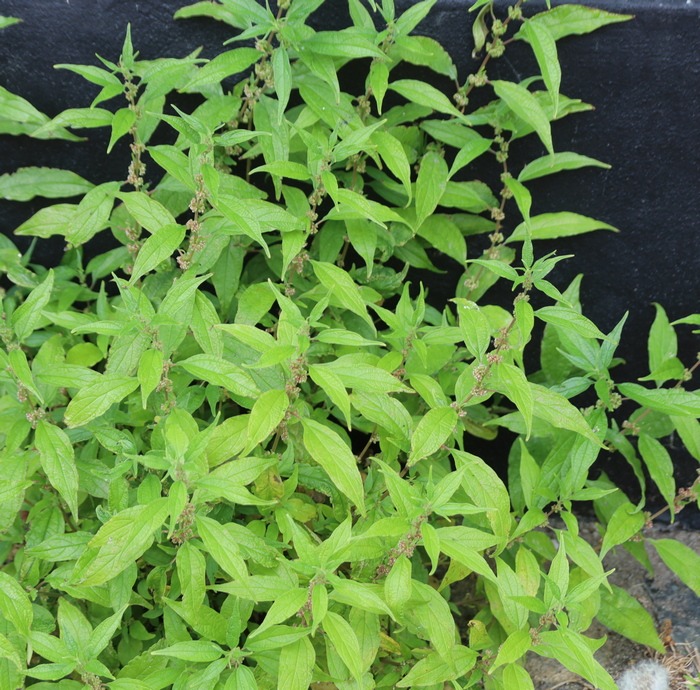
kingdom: Plantae
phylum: Tracheophyta
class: Magnoliopsida
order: Rosales
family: Urticaceae
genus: Parietaria
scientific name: Parietaria officinalis
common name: Almindelig springknap
